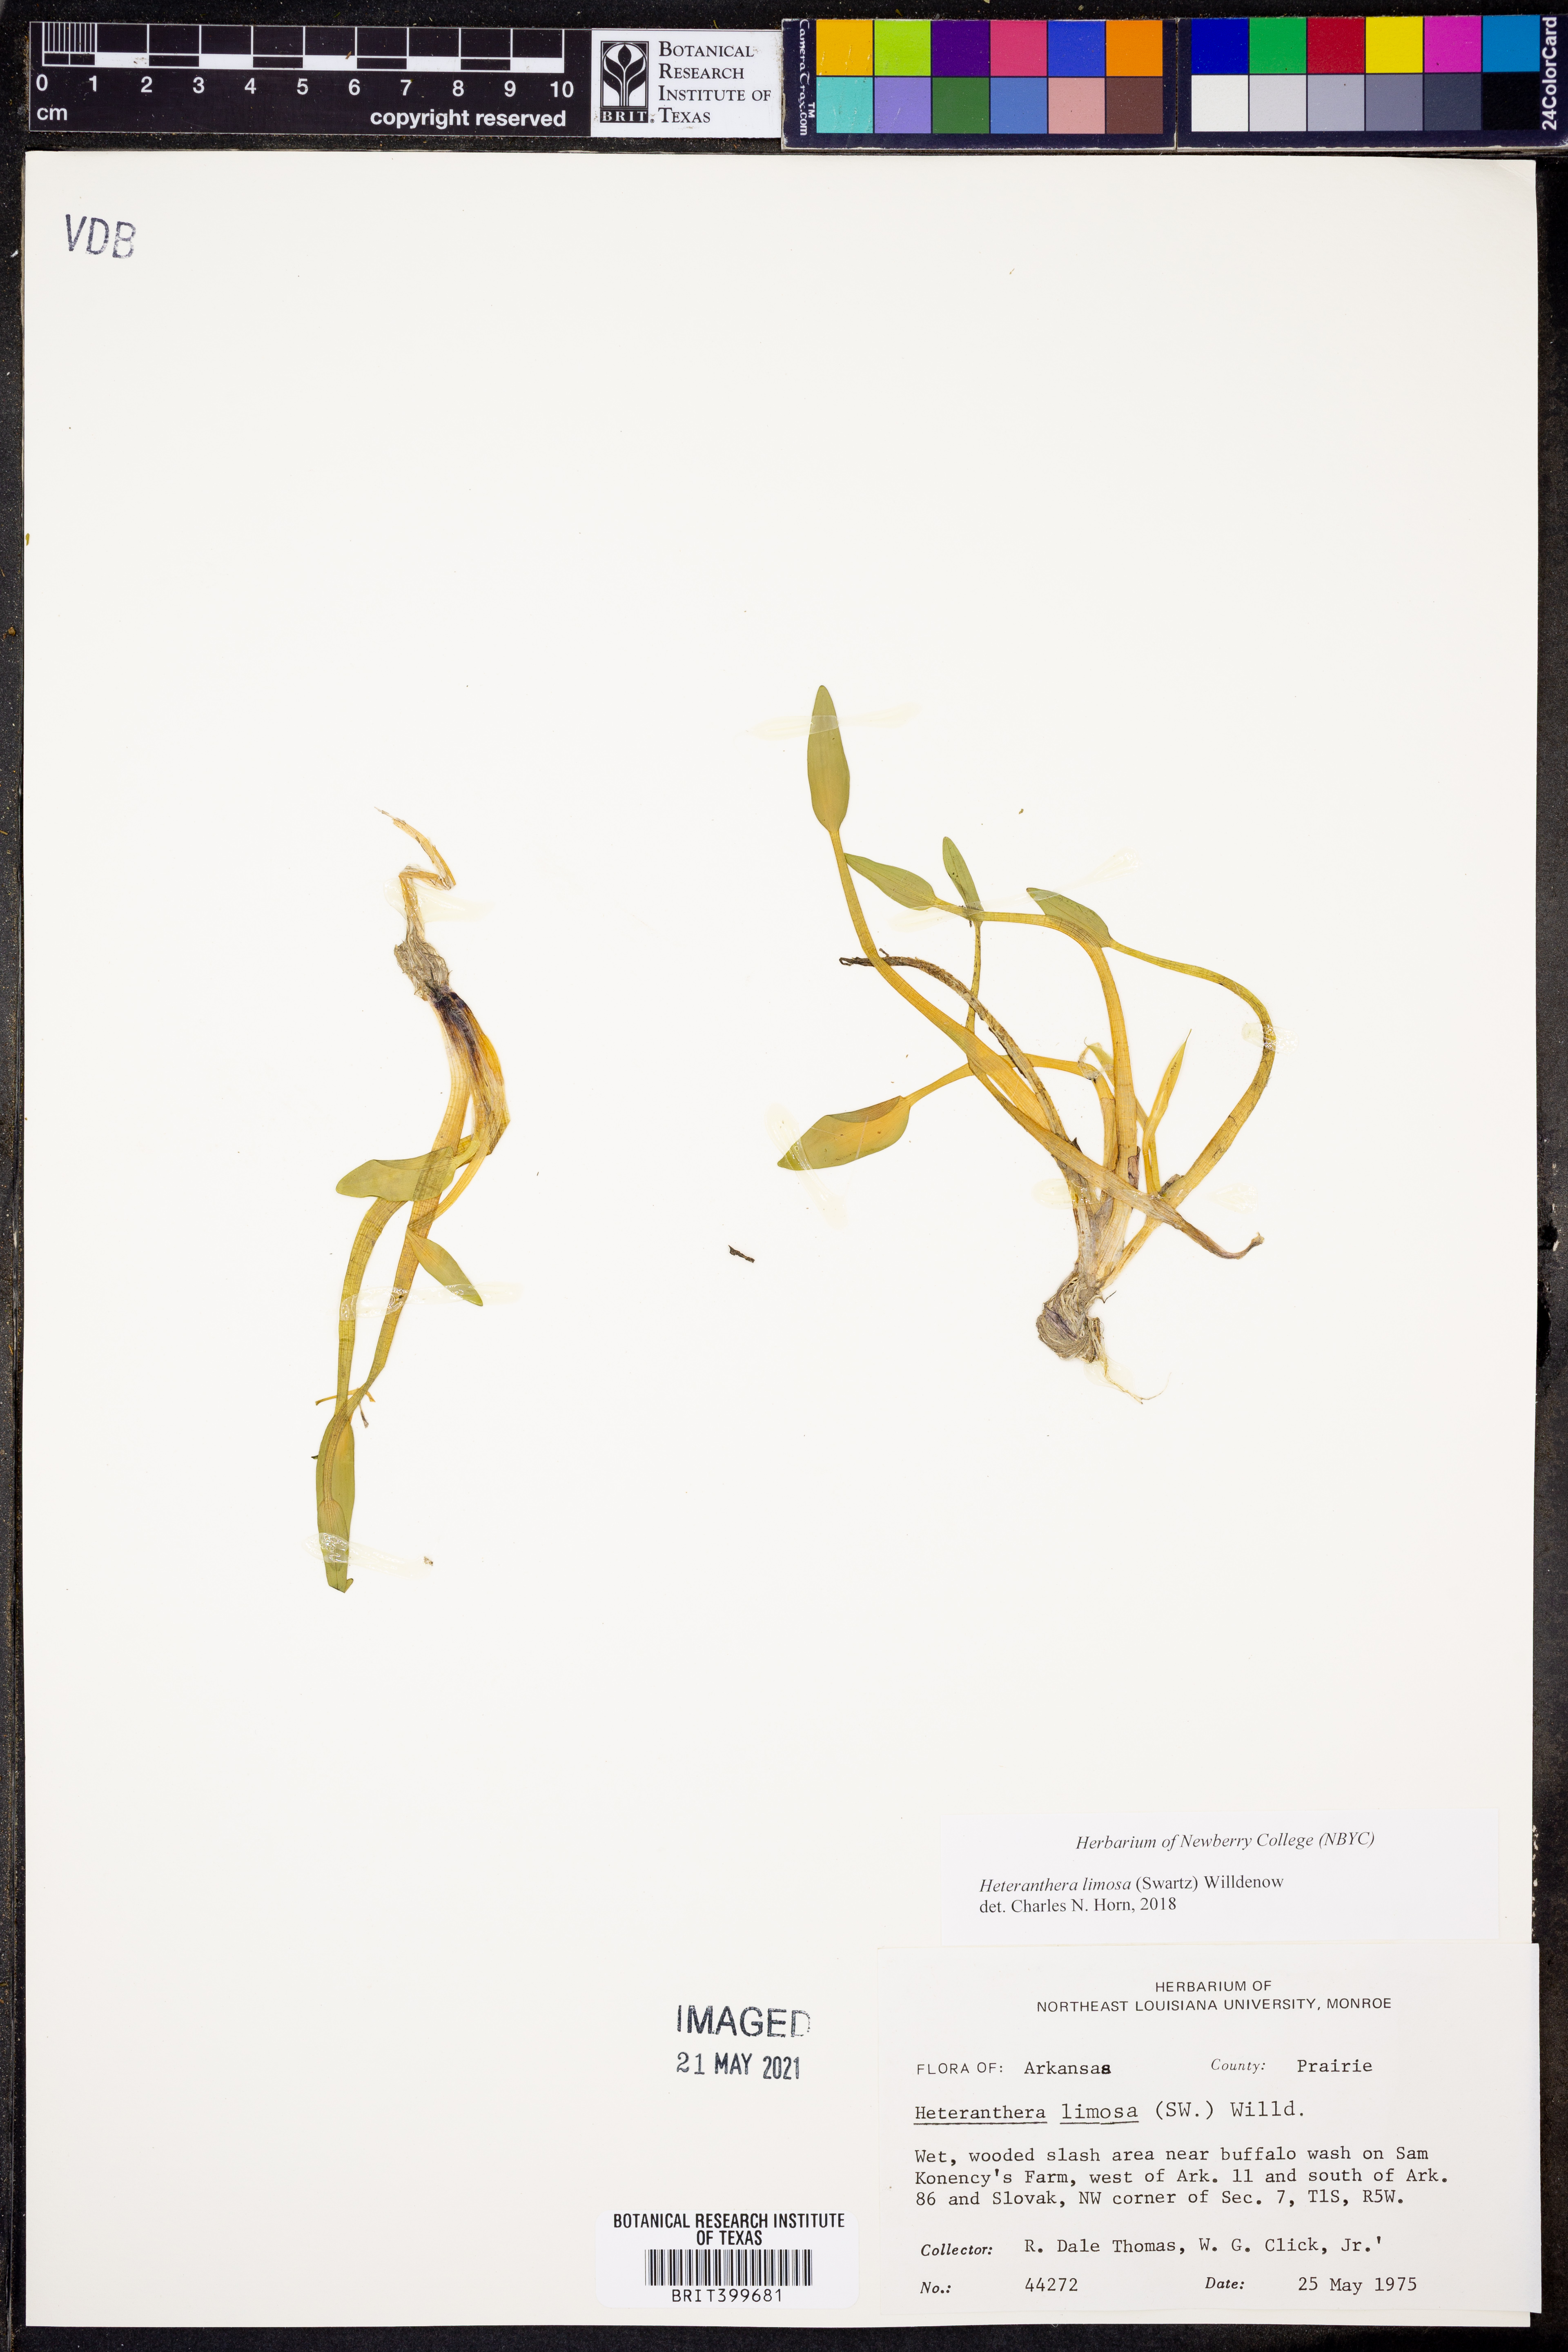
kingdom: Plantae
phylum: Tracheophyta
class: Liliopsida
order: Commelinales
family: Pontederiaceae
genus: Heteranthera
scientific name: Heteranthera limosa
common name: Blue mud-plantain
